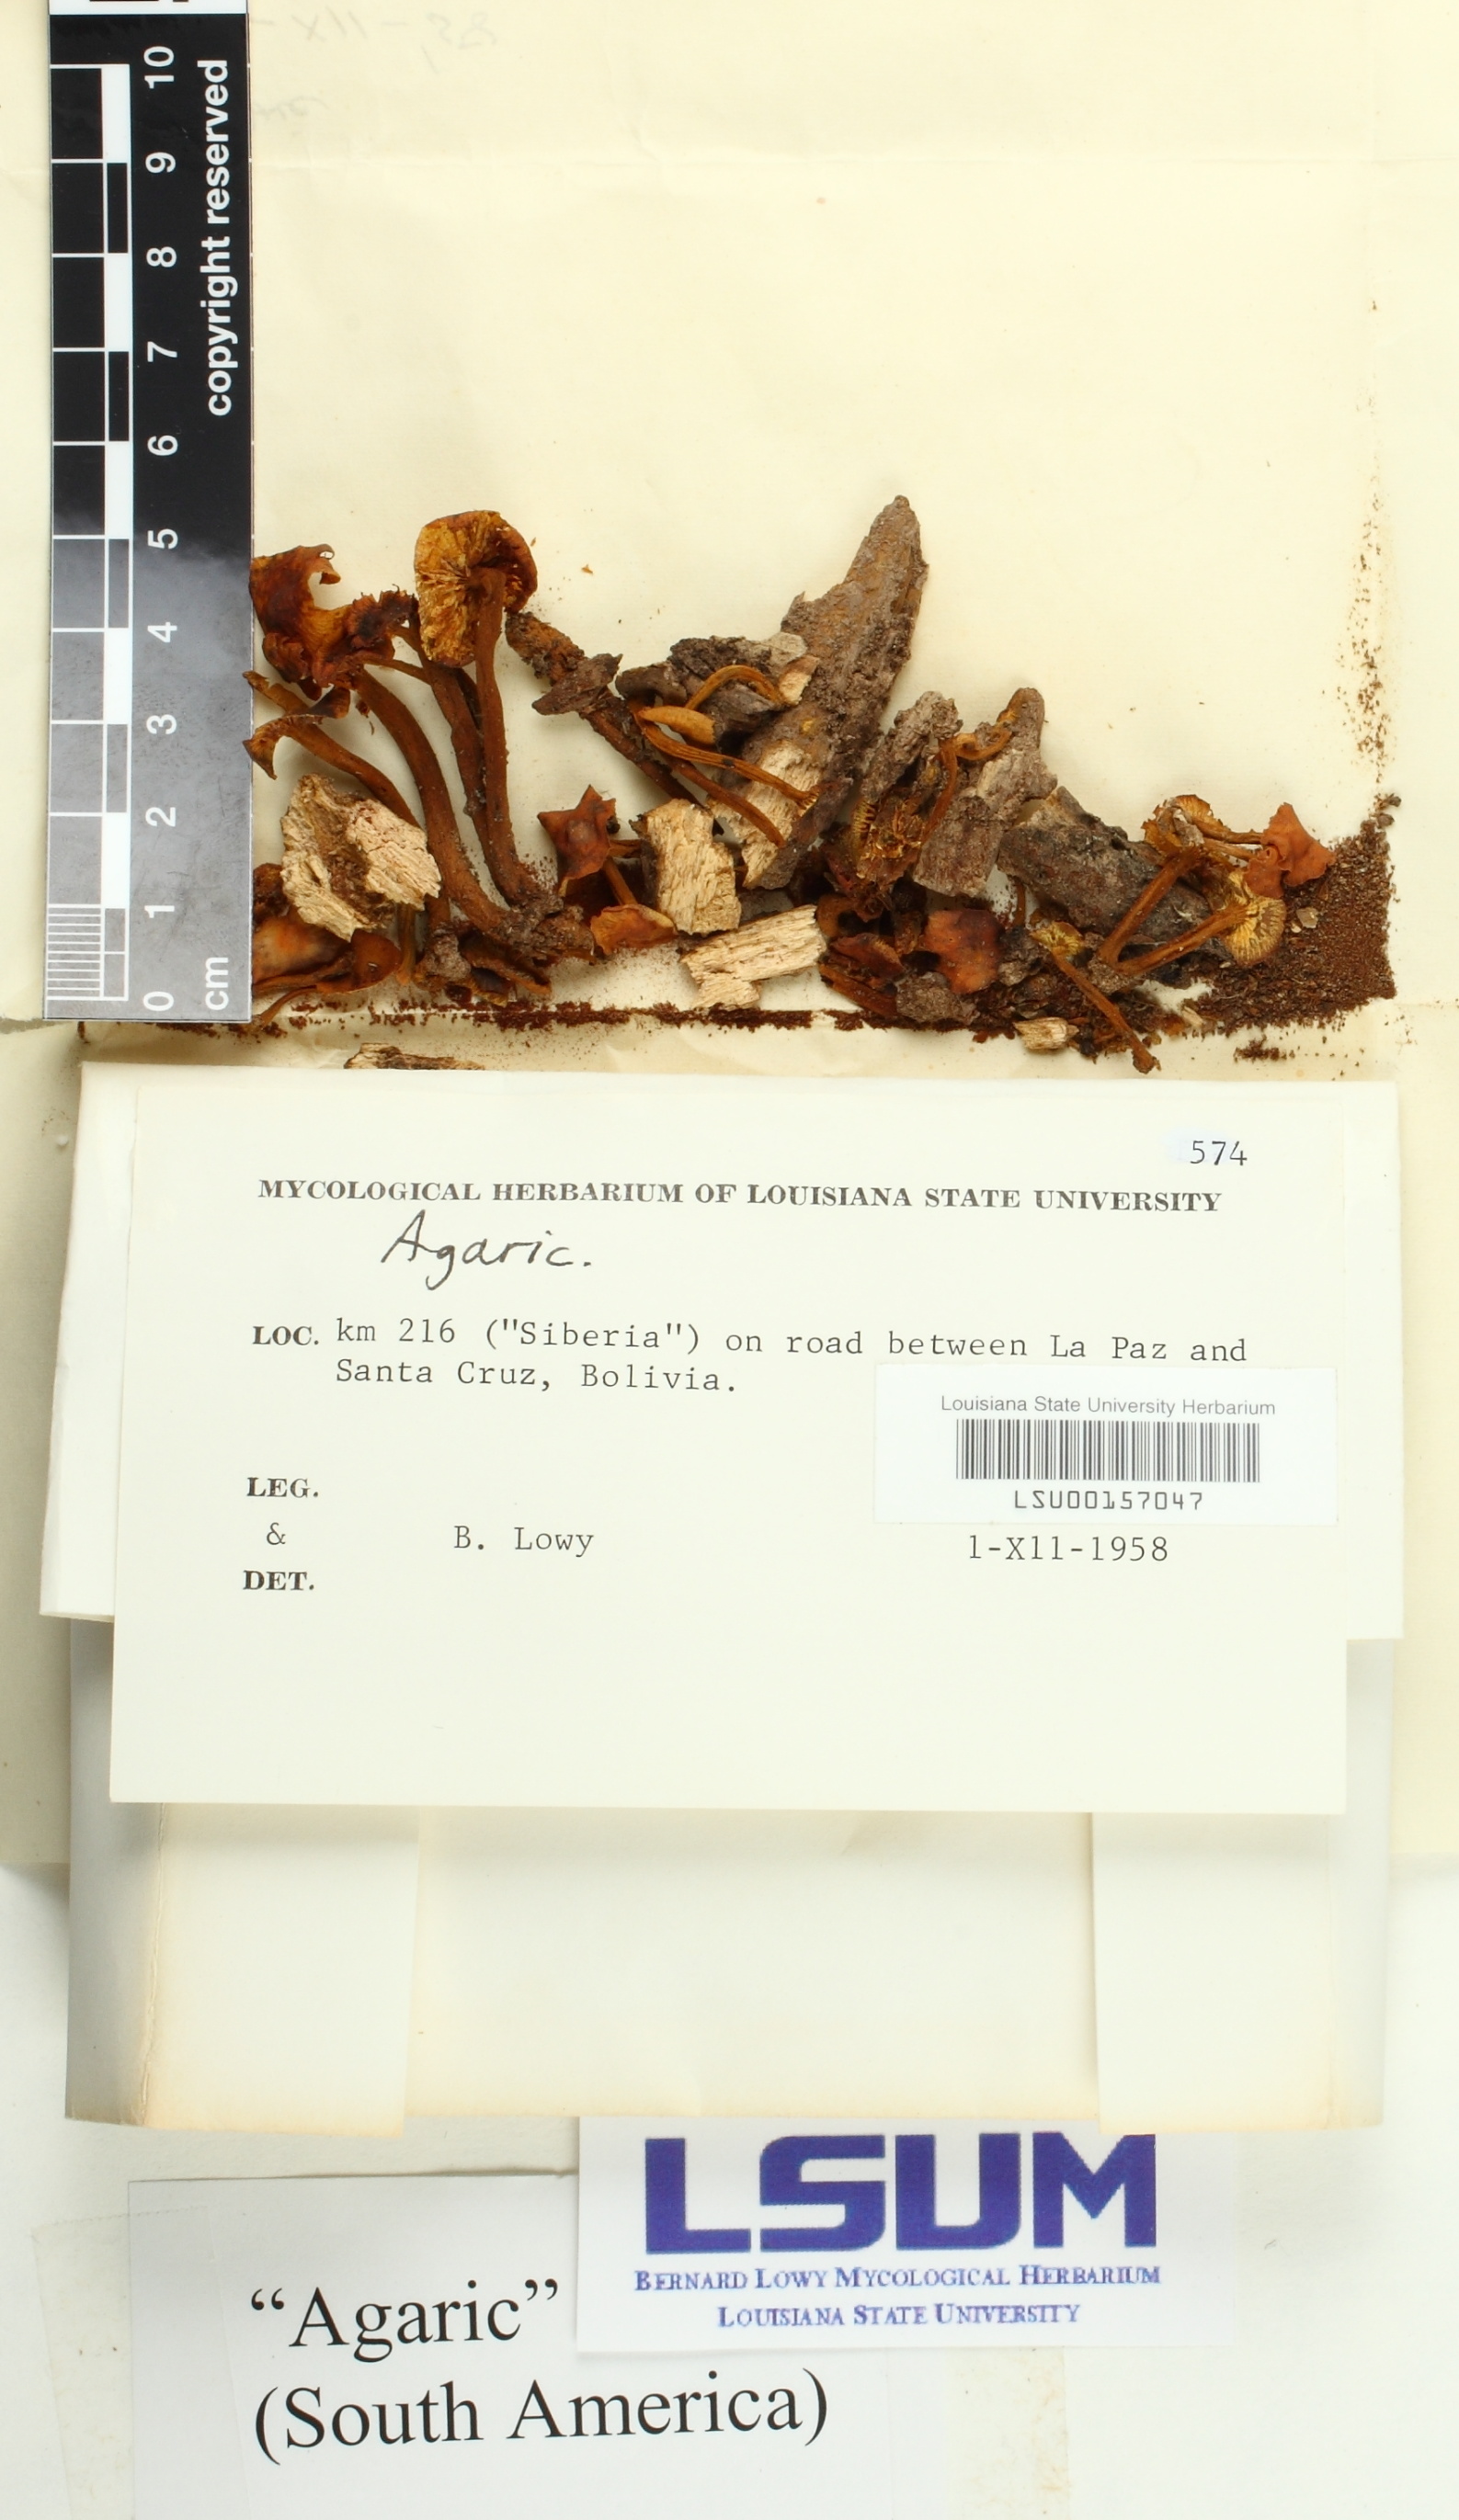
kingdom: Fungi
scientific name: Fungi
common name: Fungi
